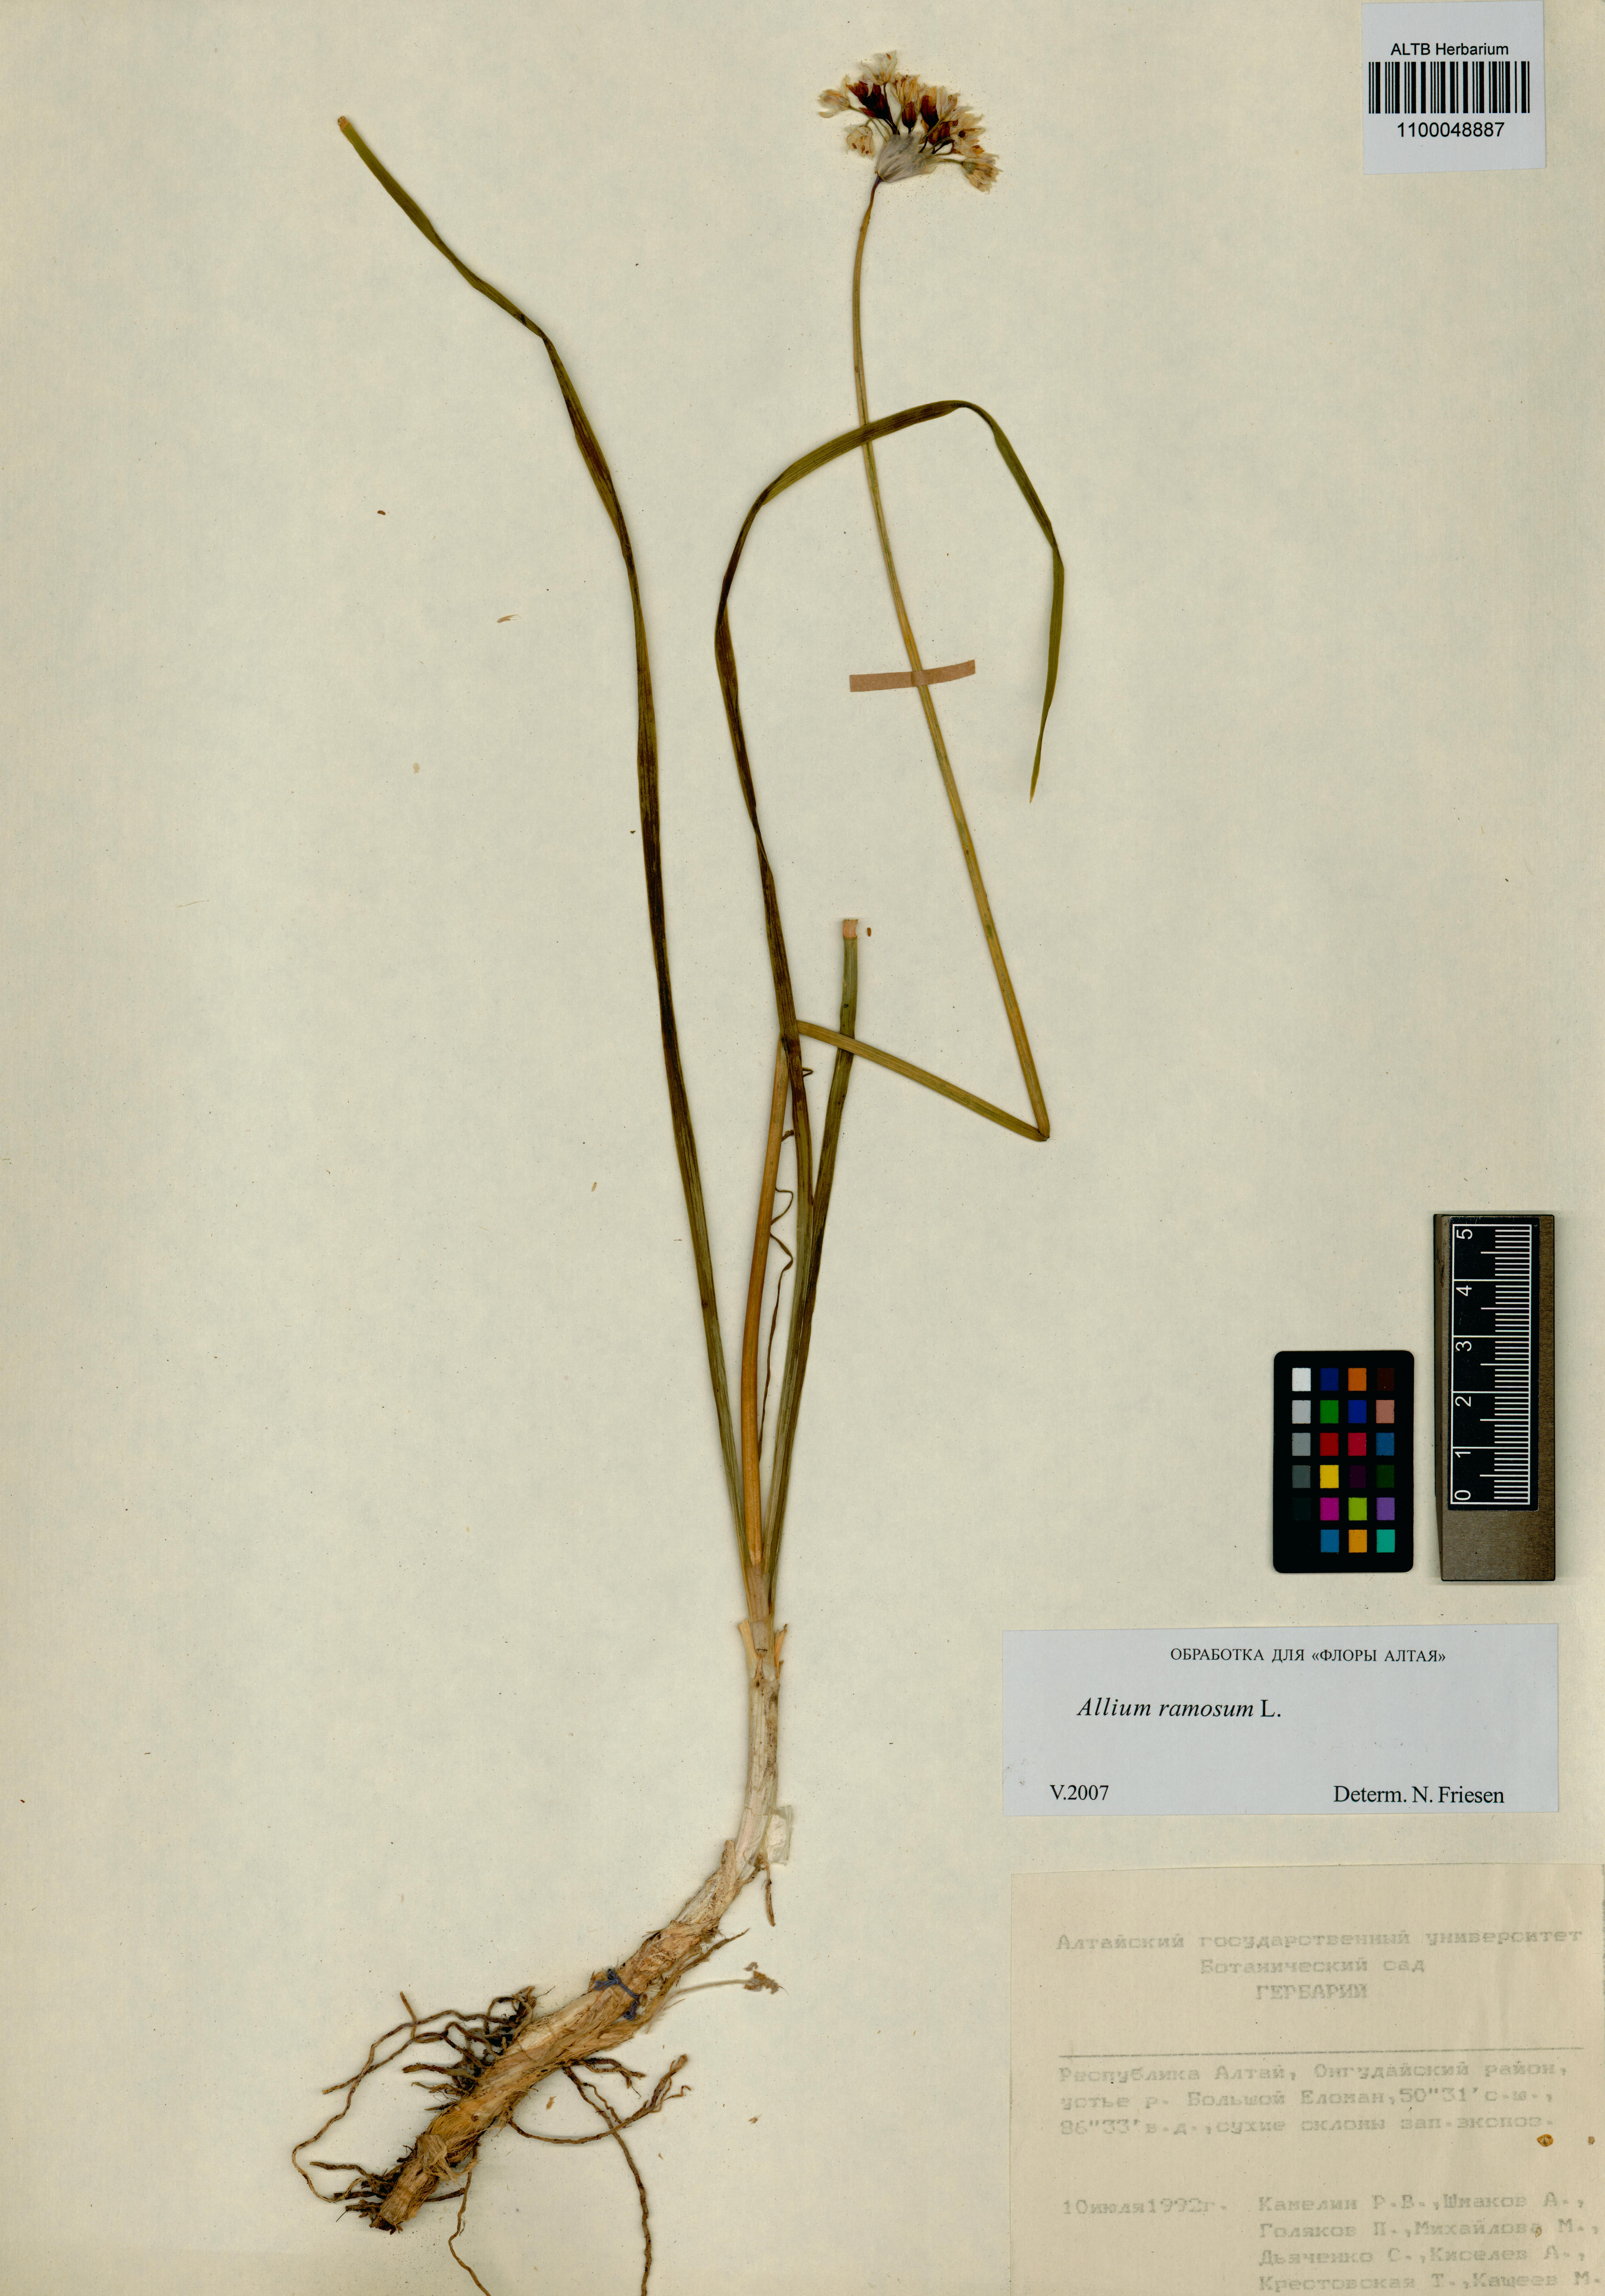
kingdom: Plantae
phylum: Tracheophyta
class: Liliopsida
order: Asparagales
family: Amaryllidaceae
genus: Allium
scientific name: Allium ramosum
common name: Fragrant garlic
